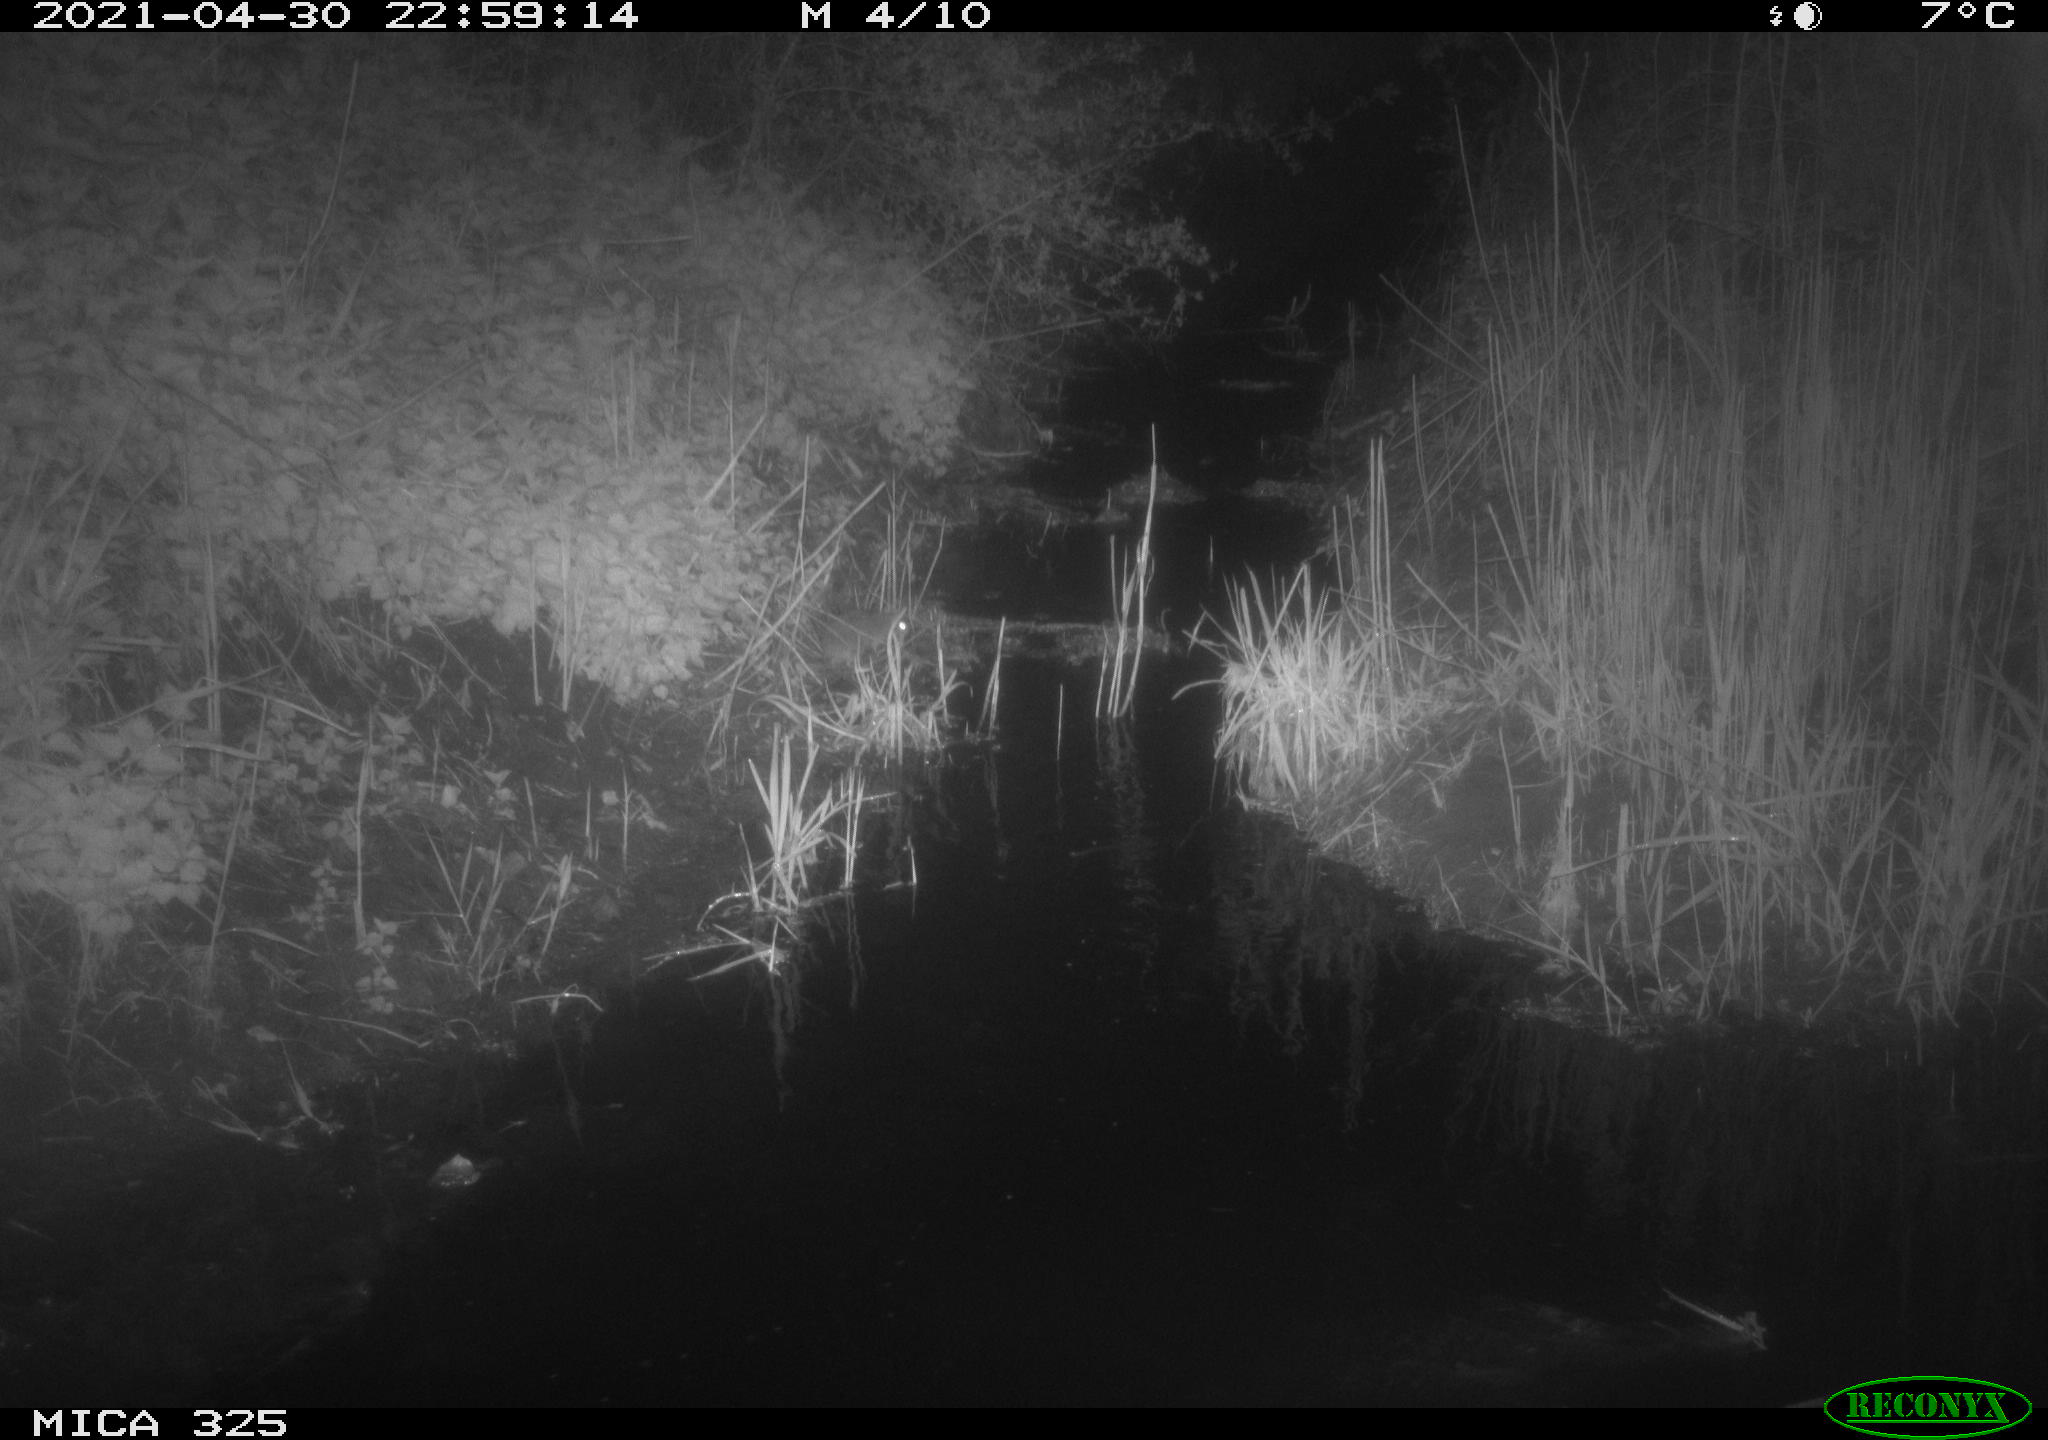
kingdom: Animalia
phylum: Chordata
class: Mammalia
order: Rodentia
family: Muridae
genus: Rattus
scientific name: Rattus norvegicus
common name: Brown rat
